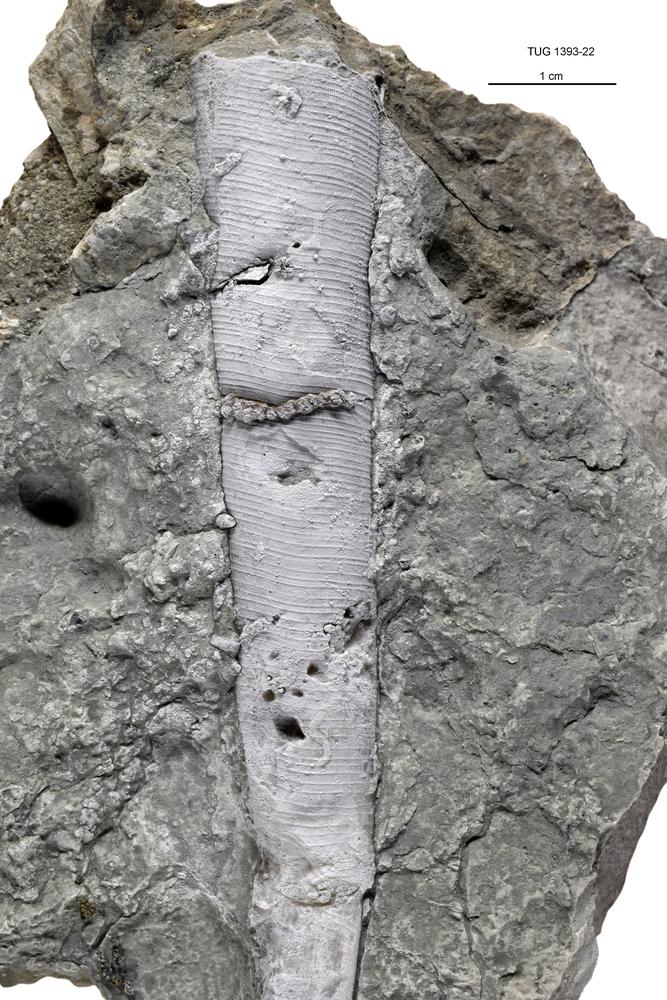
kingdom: Animalia
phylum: Mollusca
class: Cephalopoda
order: Orthocerida
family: Proteoceratidae
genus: Isorthoceras
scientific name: Isorthoceras cavi
